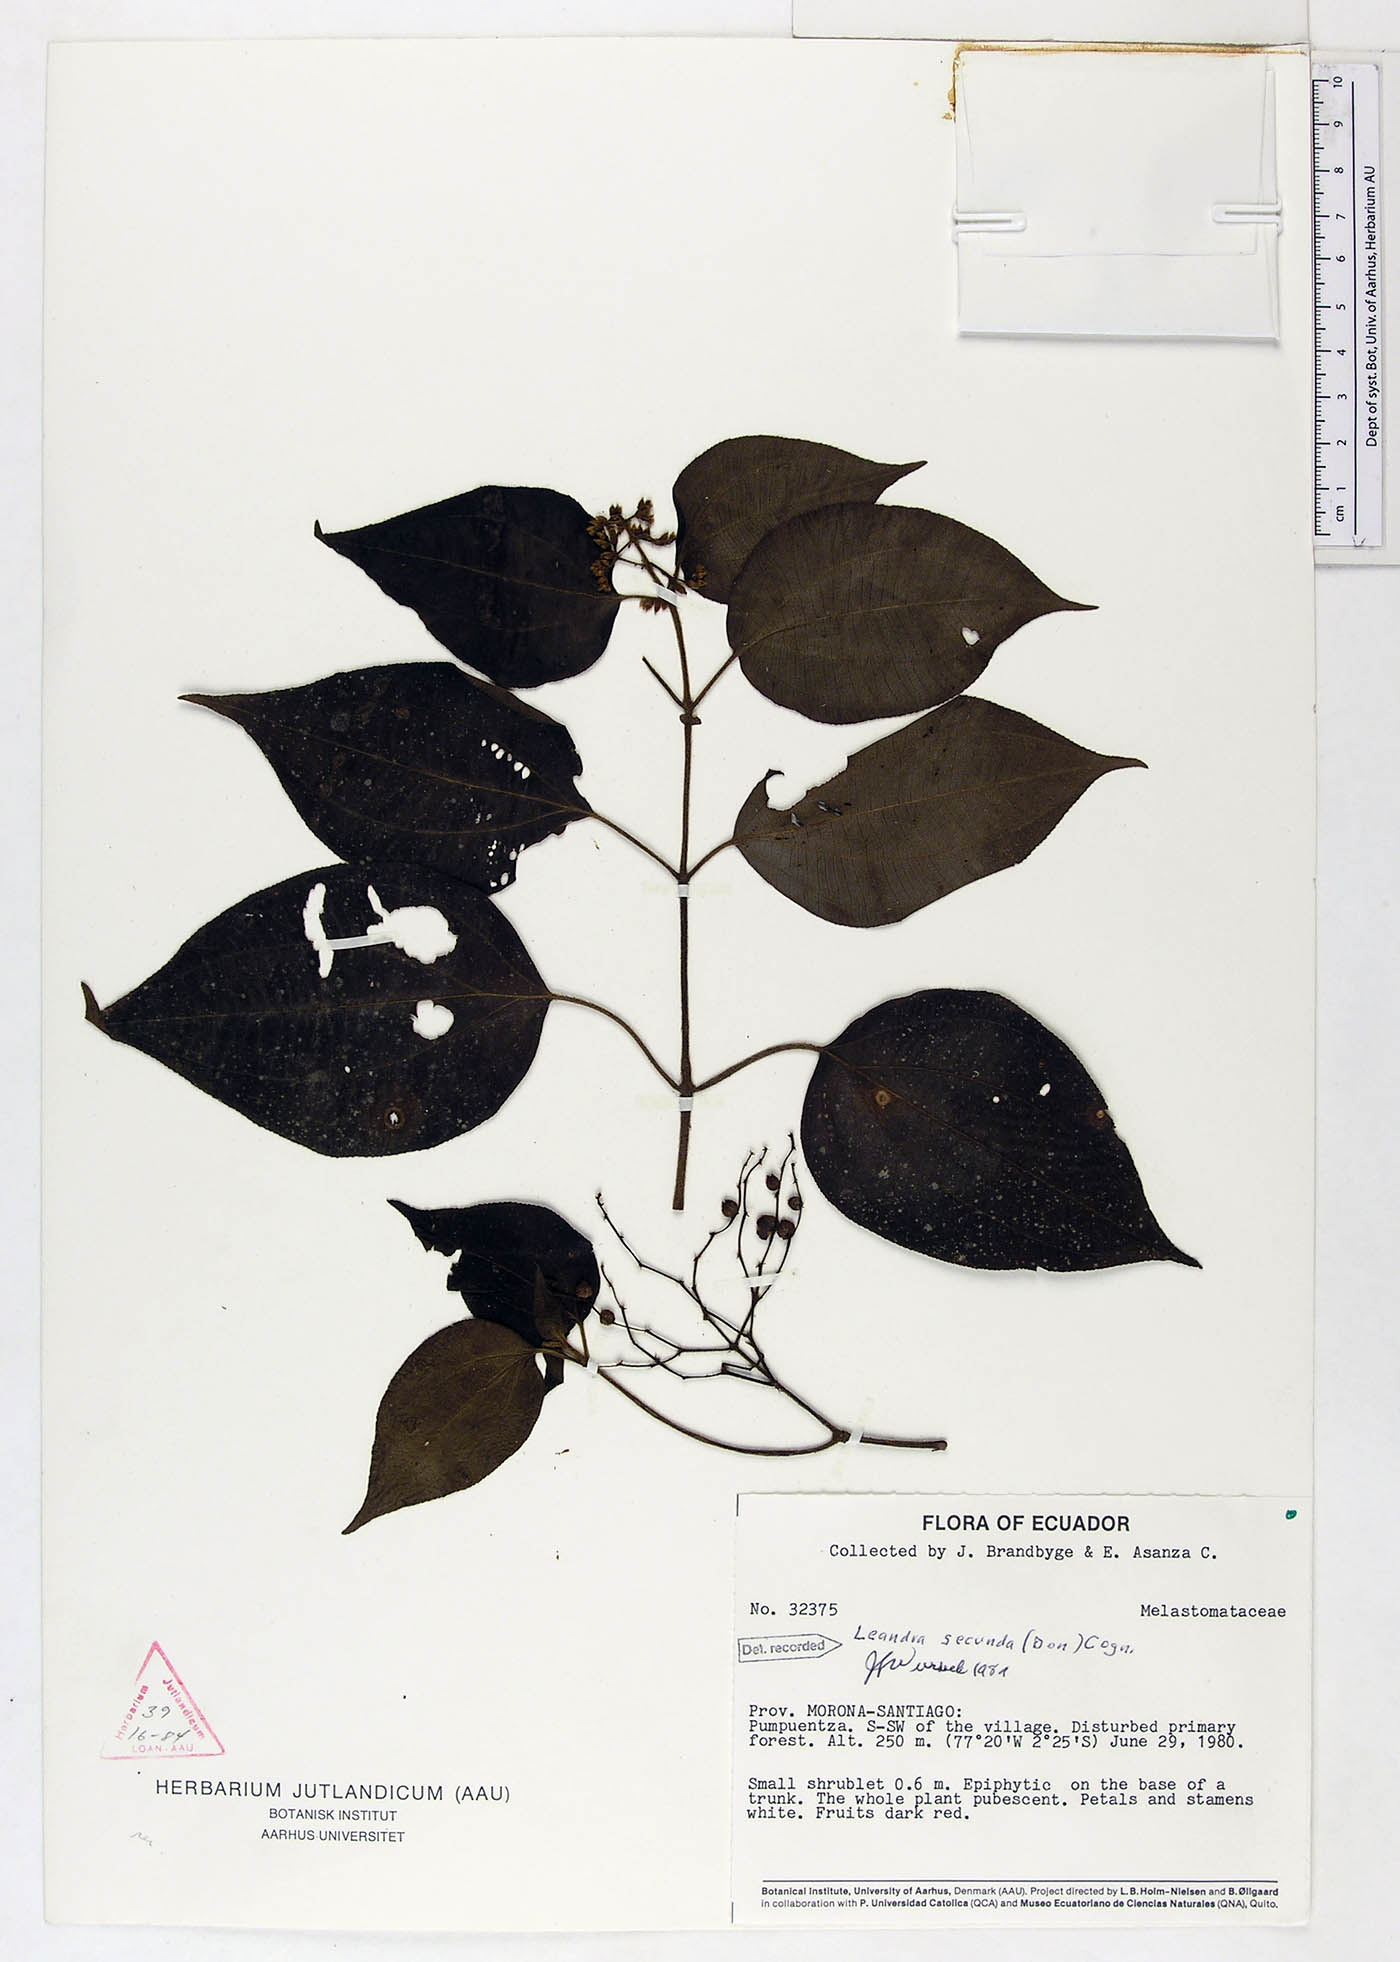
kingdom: Plantae
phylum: Tracheophyta
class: Magnoliopsida
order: Myrtales
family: Melastomataceae
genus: Miconia
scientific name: Miconia neosecunda
